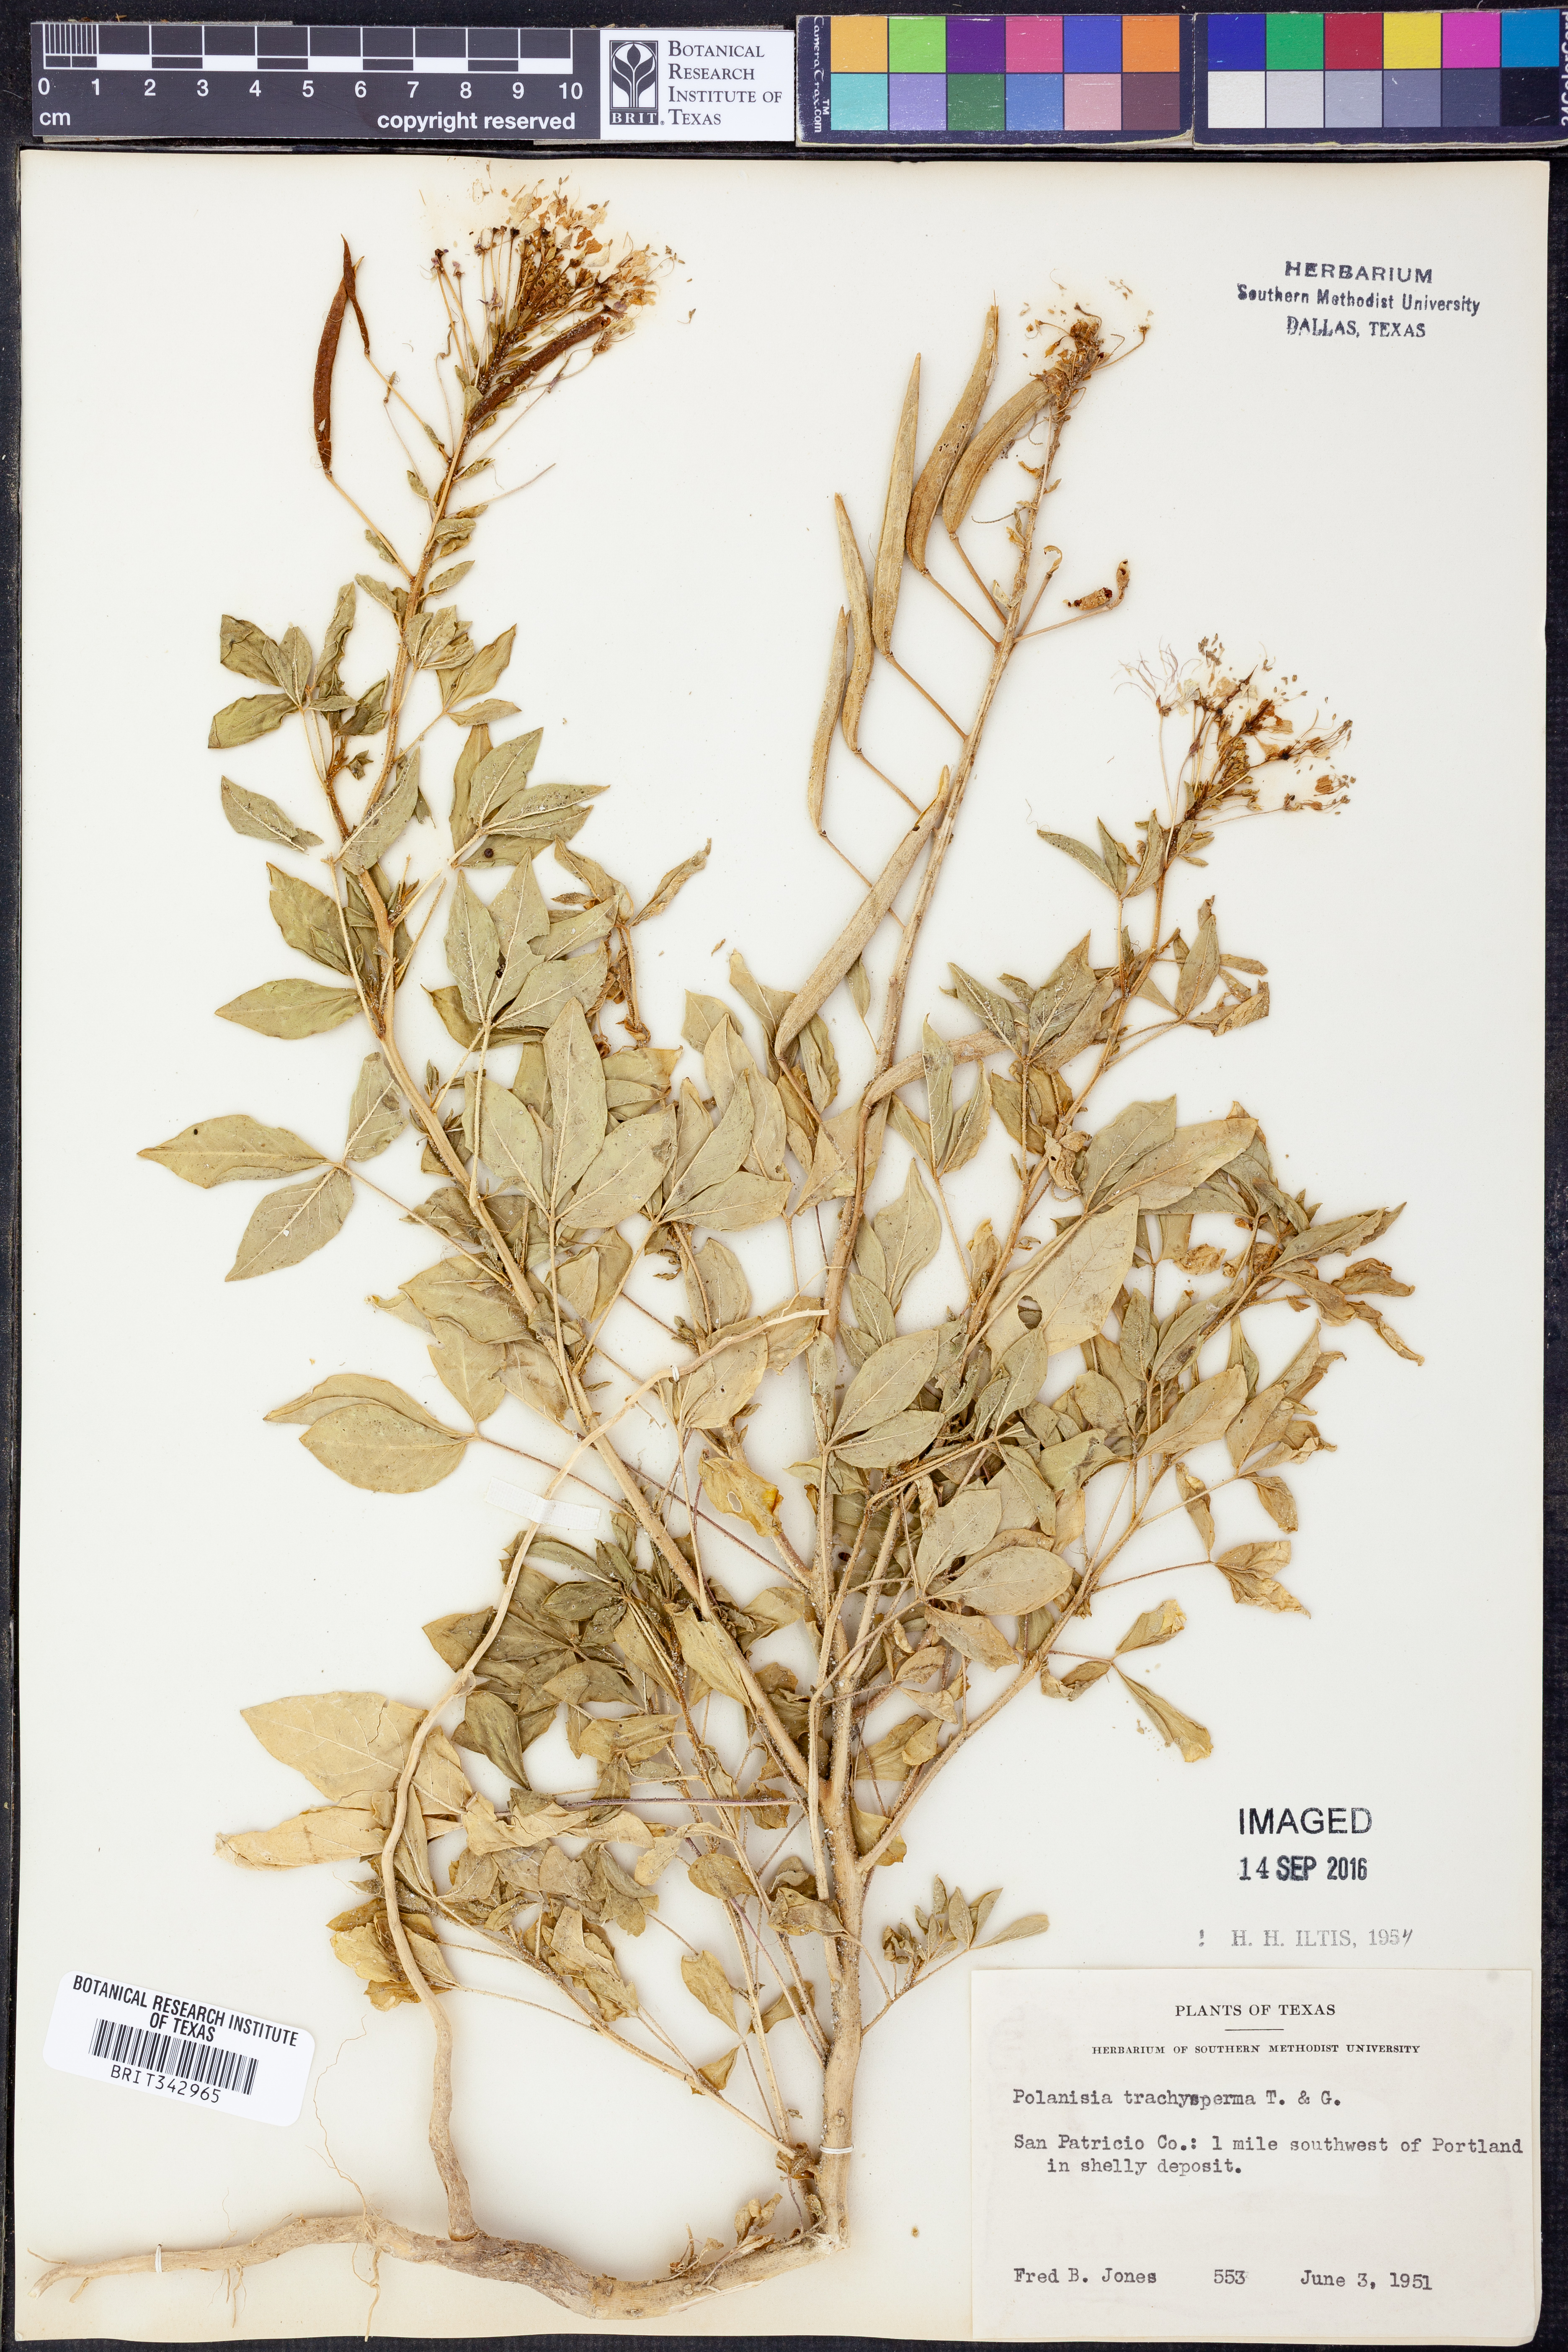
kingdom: Plantae
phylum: Tracheophyta
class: Magnoliopsida
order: Brassicales
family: Cleomaceae
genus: Polanisia
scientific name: Polanisia trachysperma
